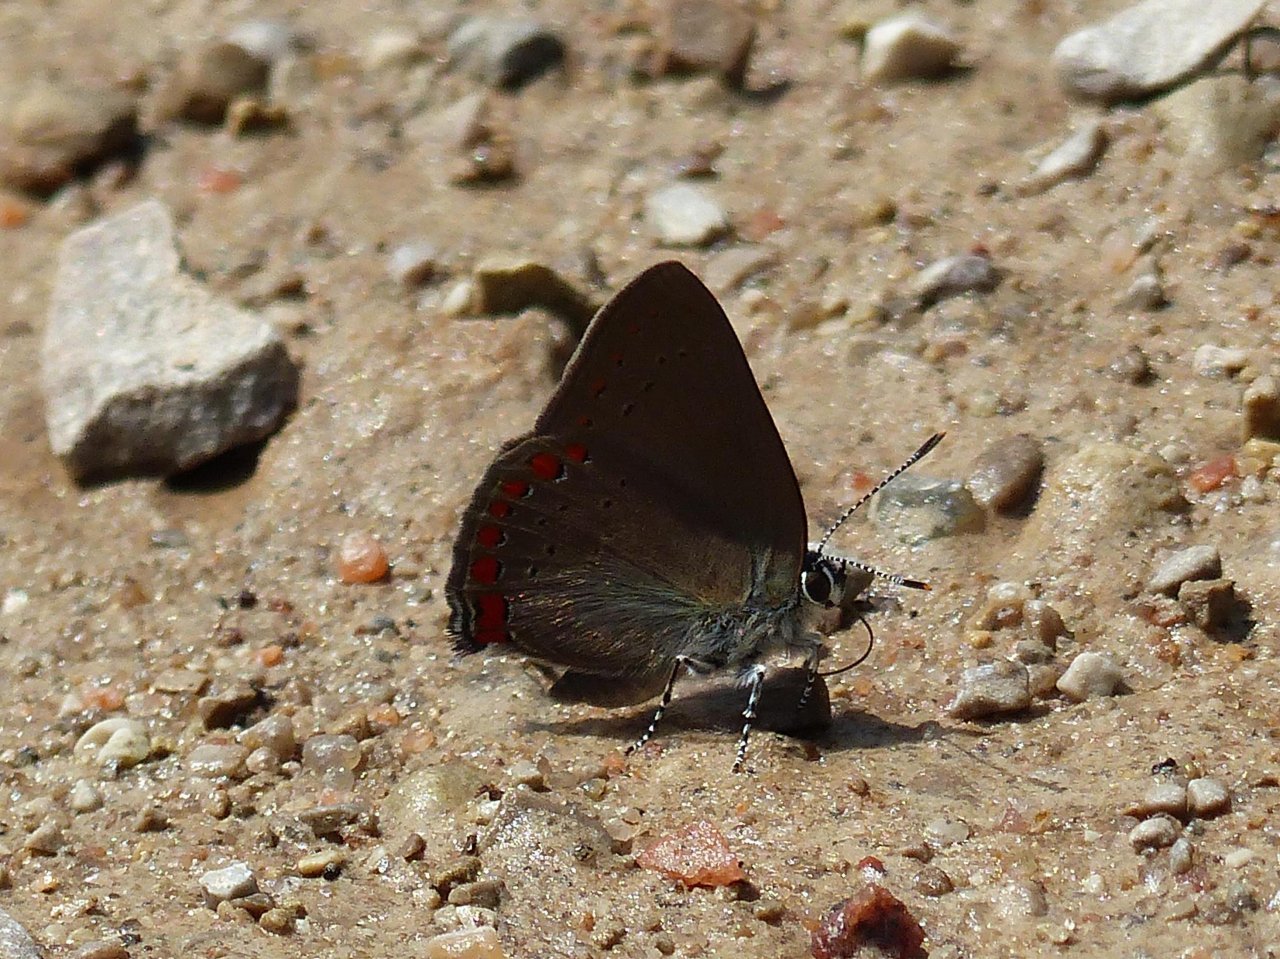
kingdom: Animalia
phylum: Arthropoda
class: Insecta
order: Lepidoptera
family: Lycaenidae
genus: Harkenclenus
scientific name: Harkenclenus titus
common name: Coral Hairstreak
